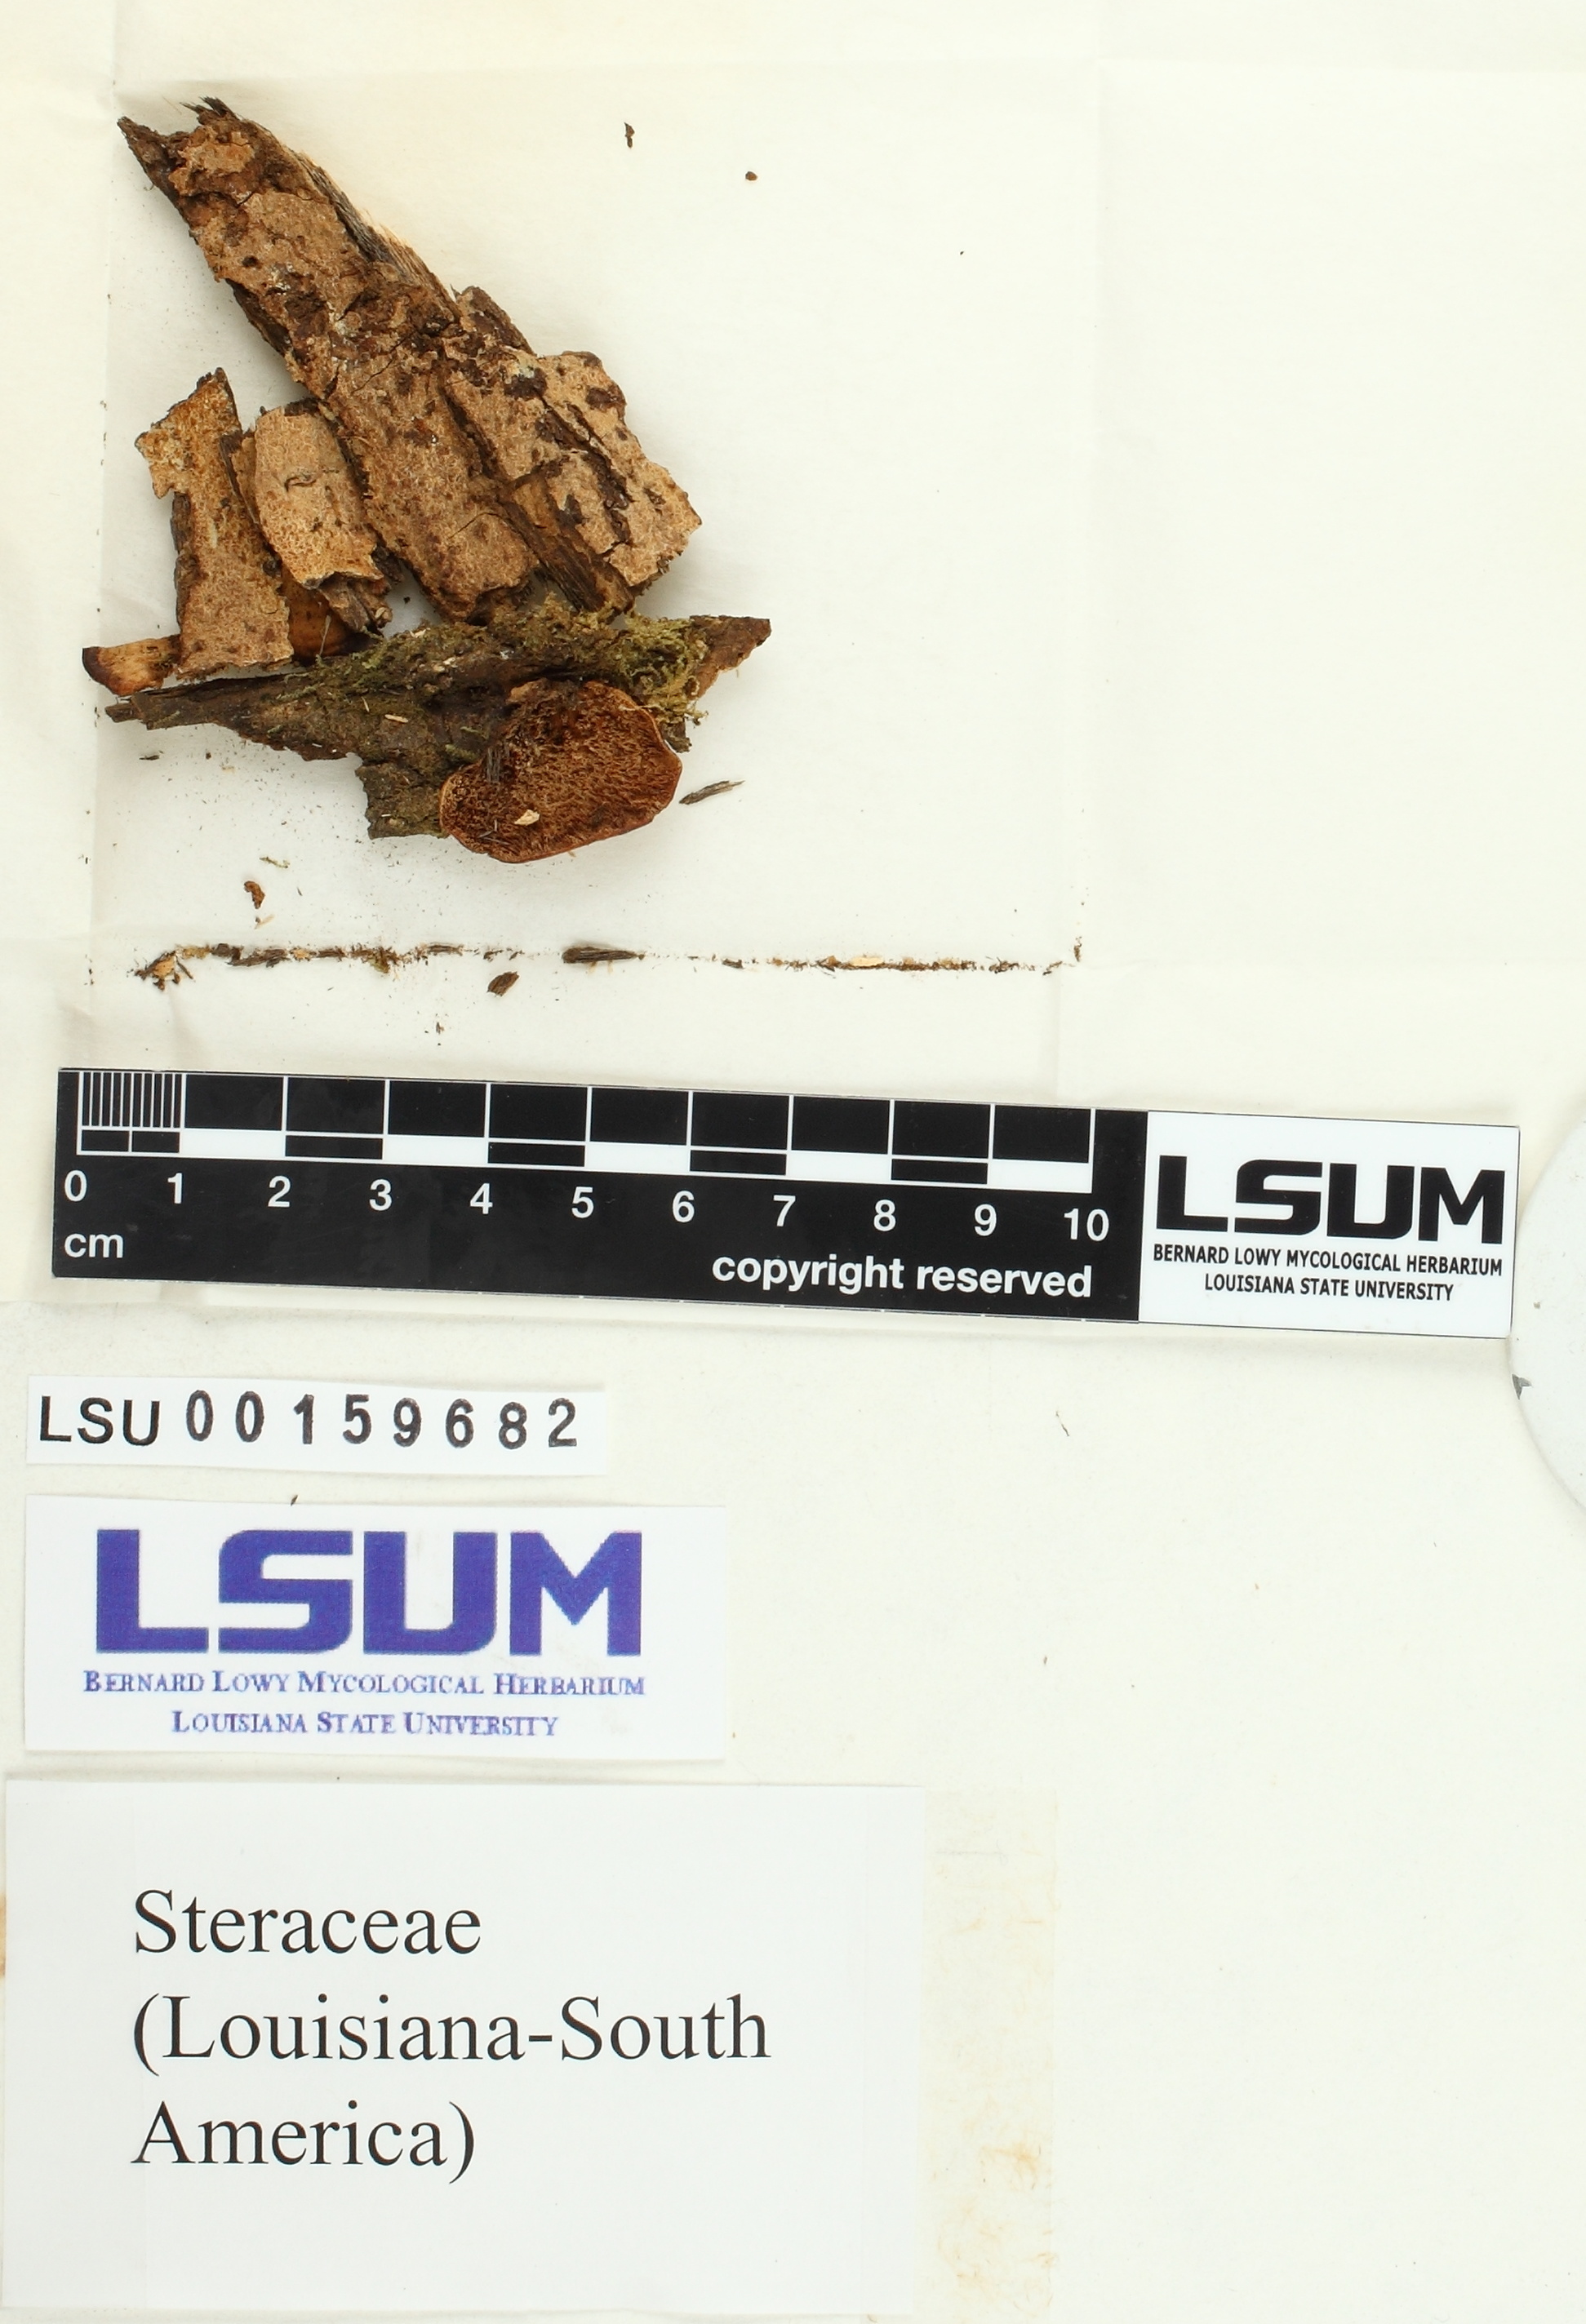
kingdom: Fungi
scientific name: Fungi
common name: Fungi
